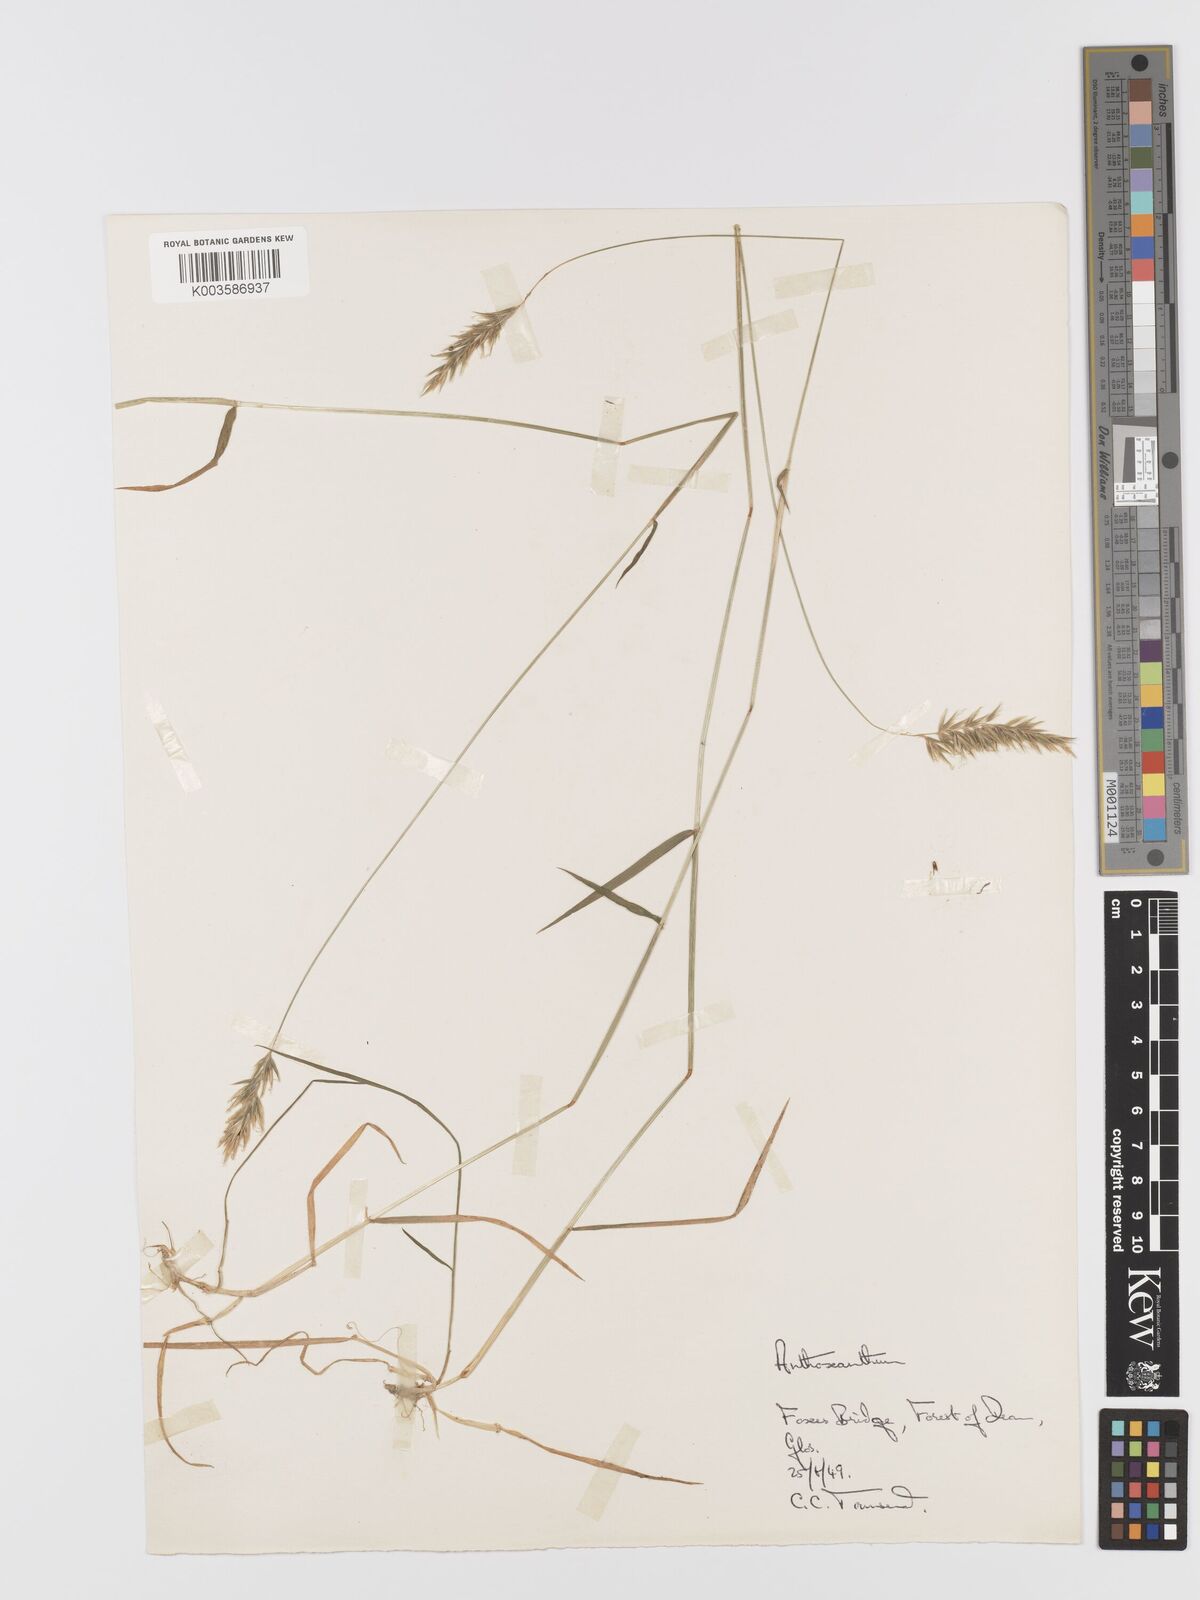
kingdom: Plantae
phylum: Tracheophyta
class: Liliopsida
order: Poales
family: Poaceae
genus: Anthoxanthum
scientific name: Anthoxanthum
